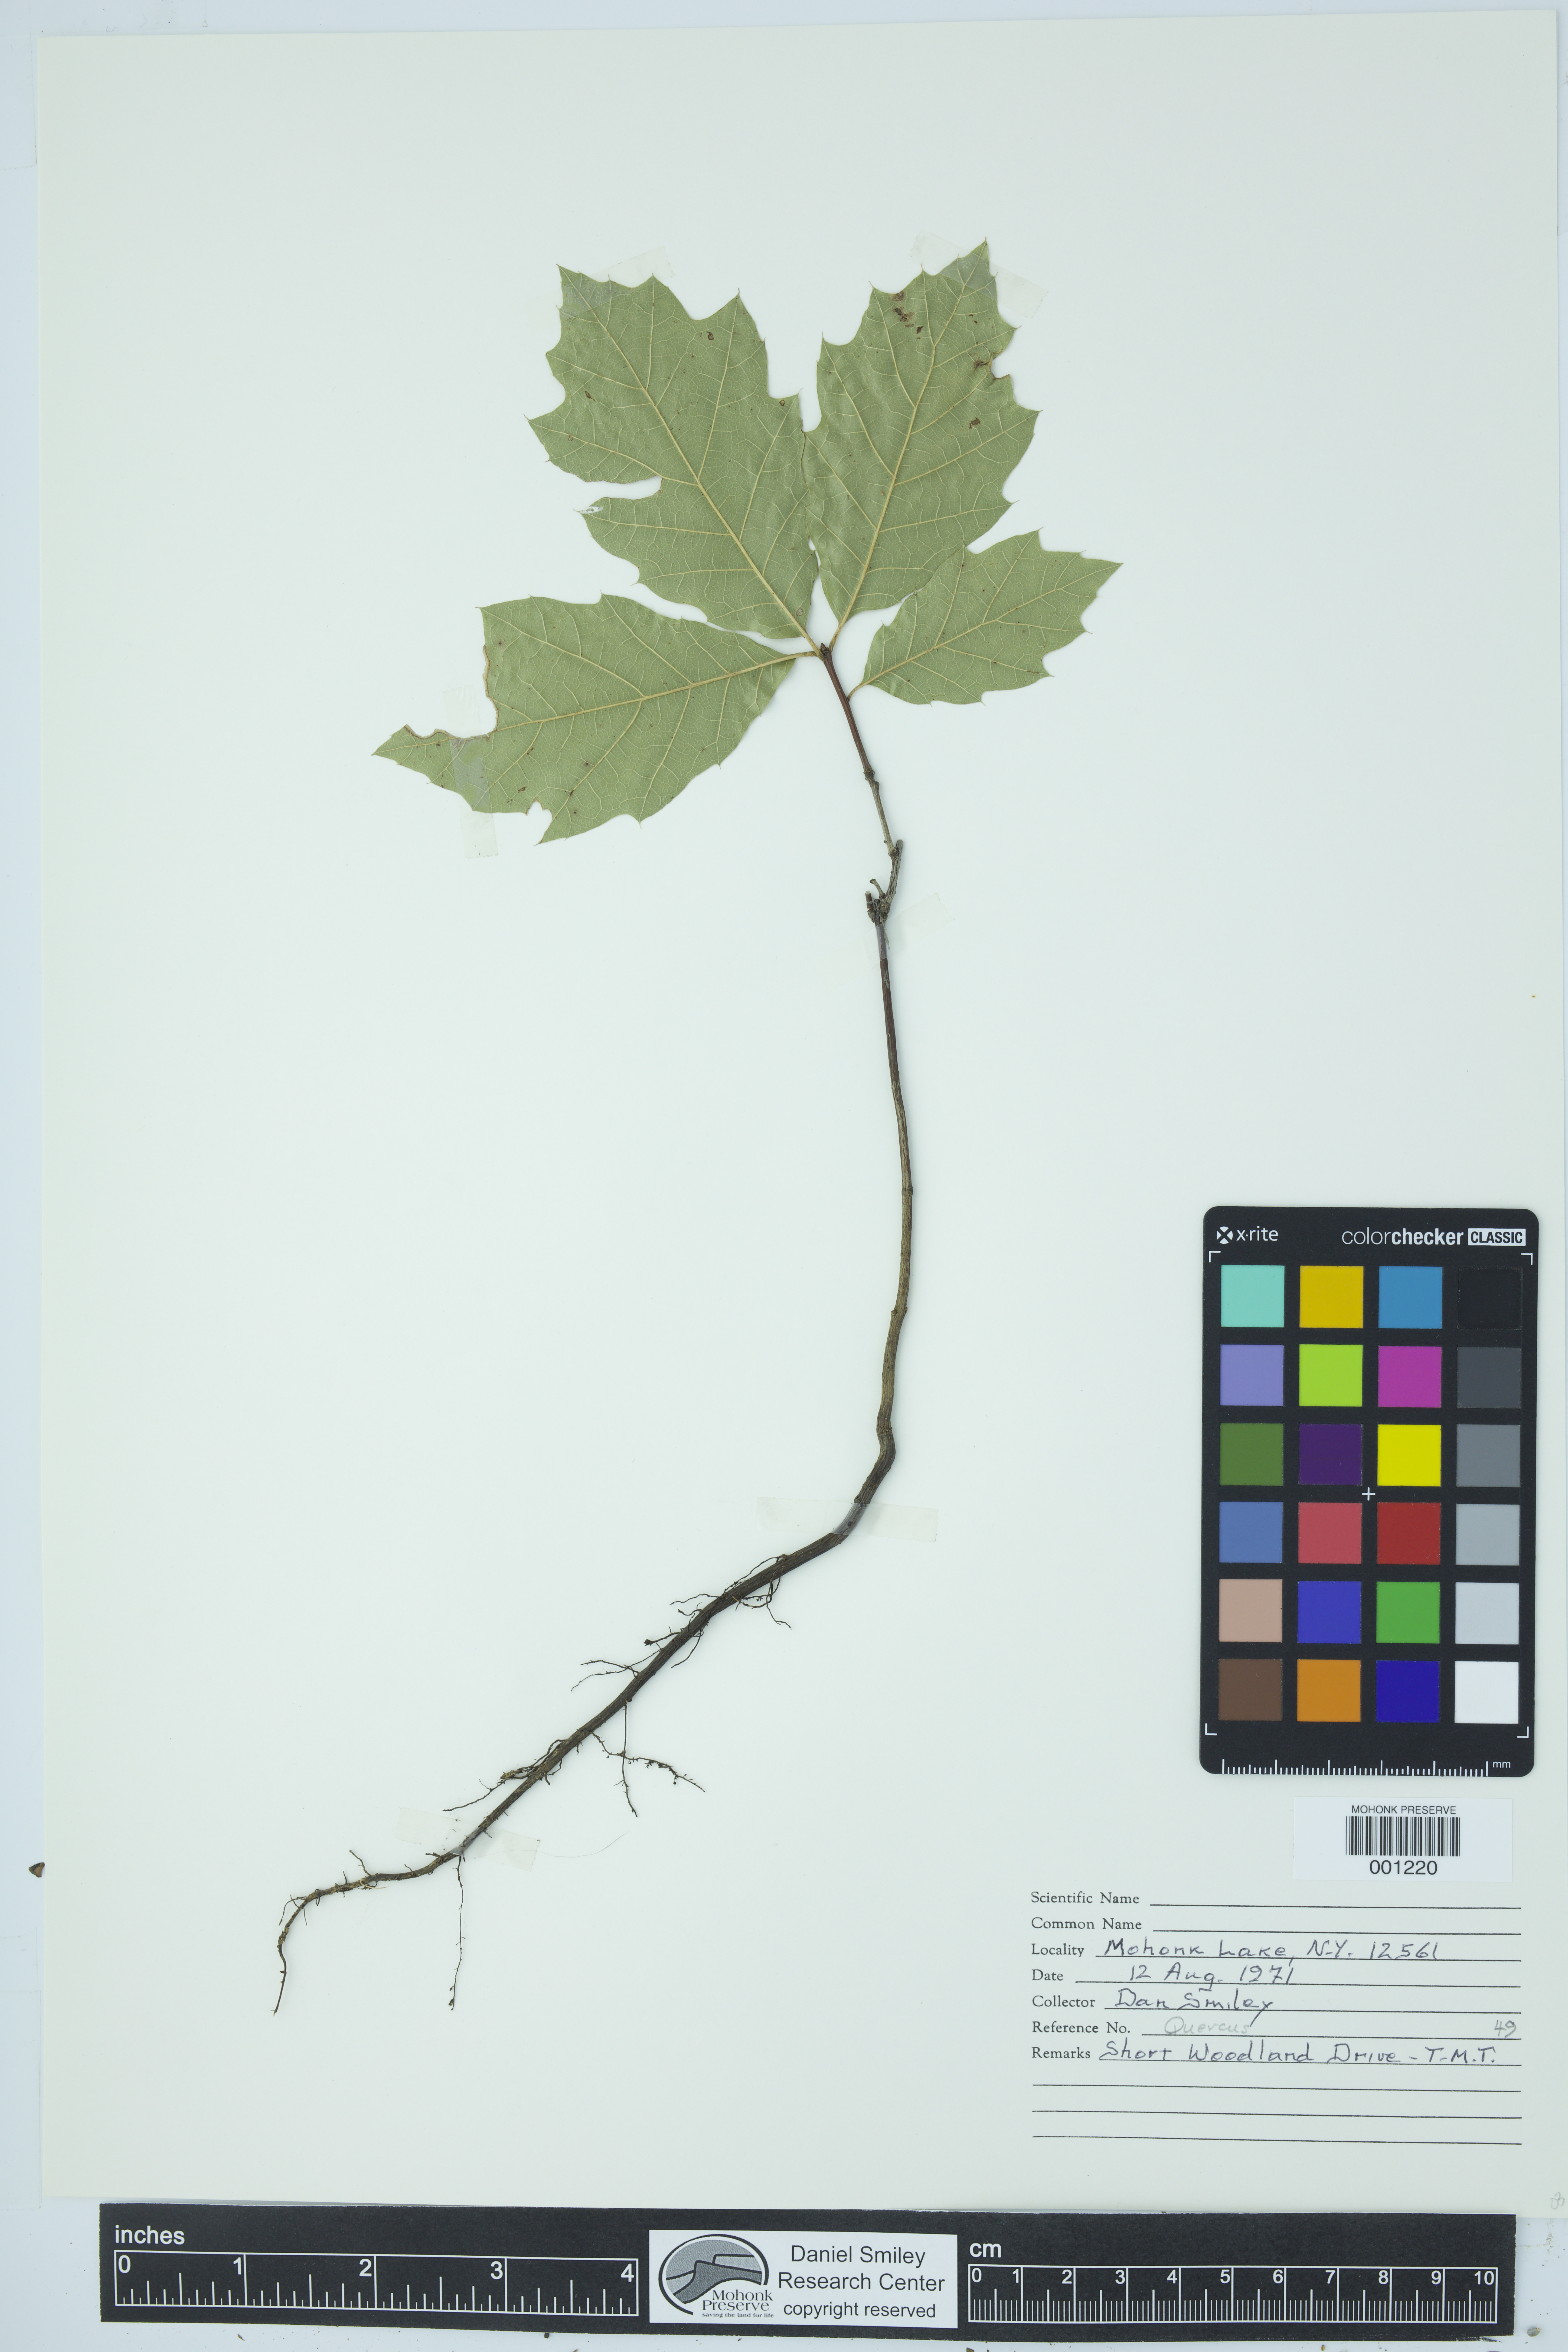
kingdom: Plantae
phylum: Tracheophyta
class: Magnoliopsida
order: Fagales
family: Fagaceae
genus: Quercus
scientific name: Quercus
